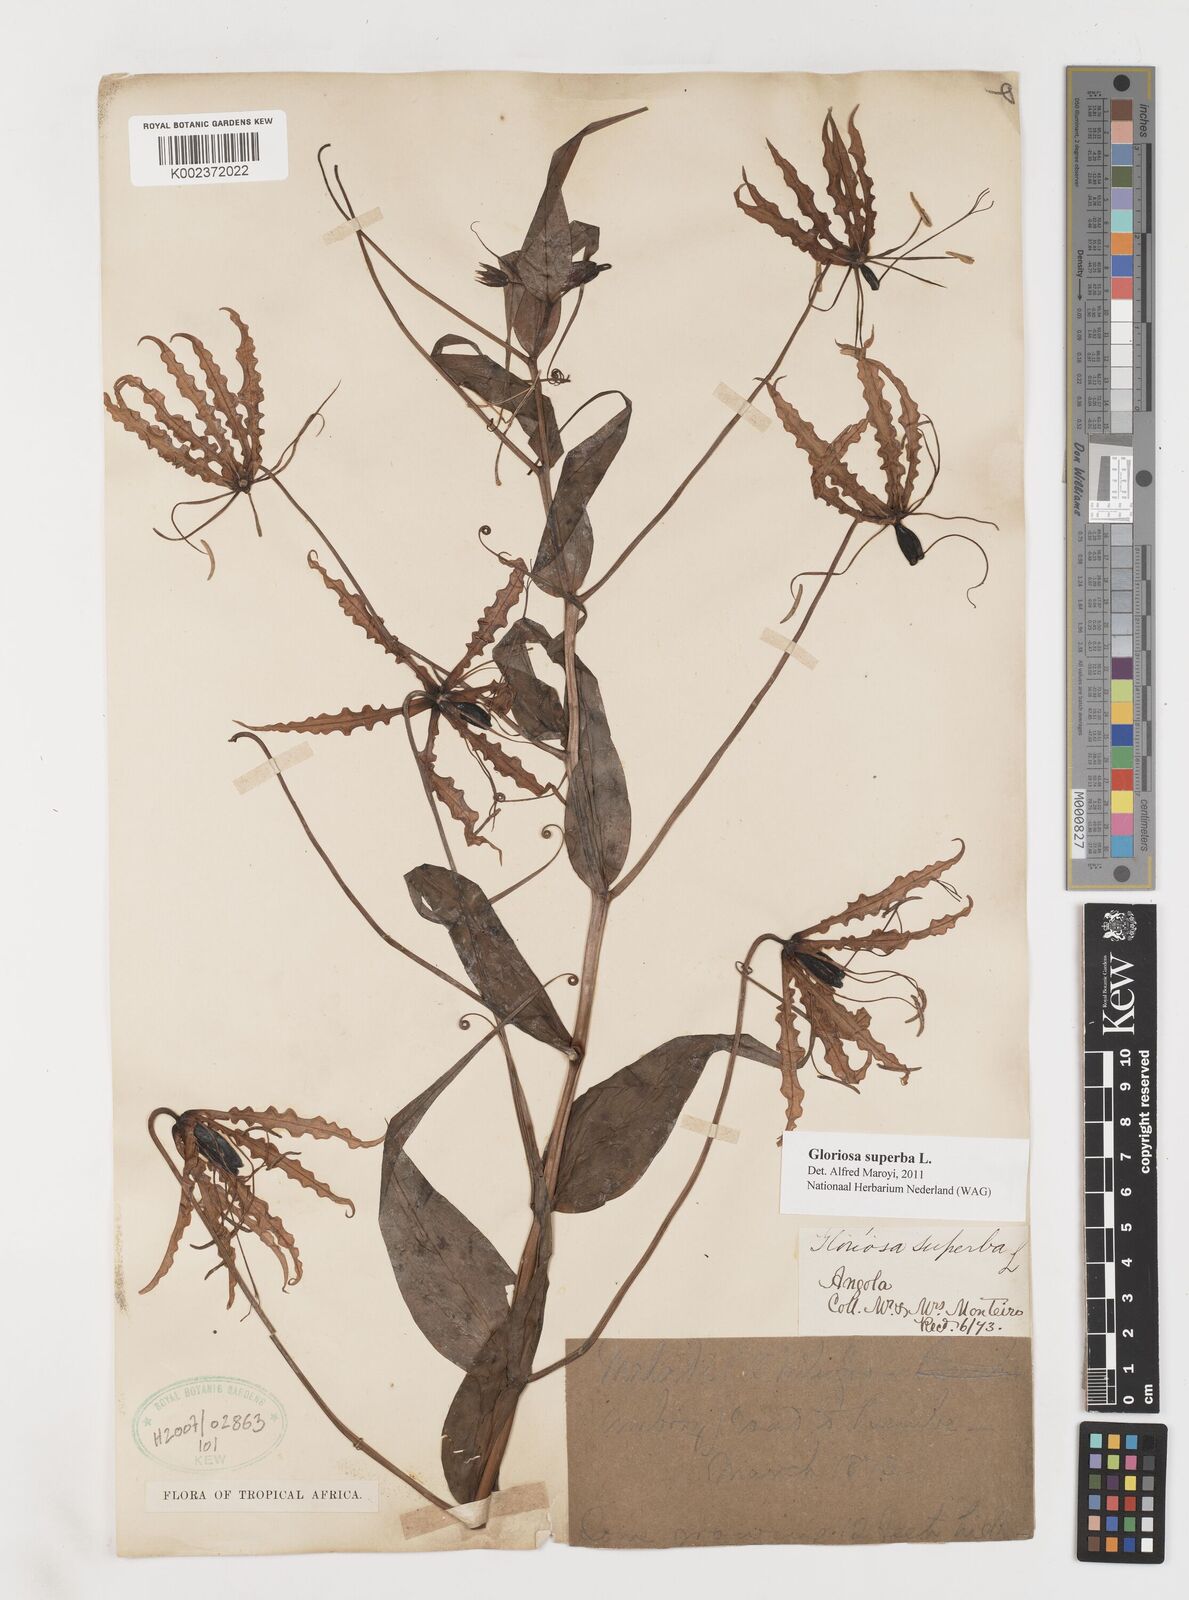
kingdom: Plantae
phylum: Tracheophyta
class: Liliopsida
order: Liliales
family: Colchicaceae
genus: Gloriosa
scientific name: Gloriosa superba
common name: Flame lily
